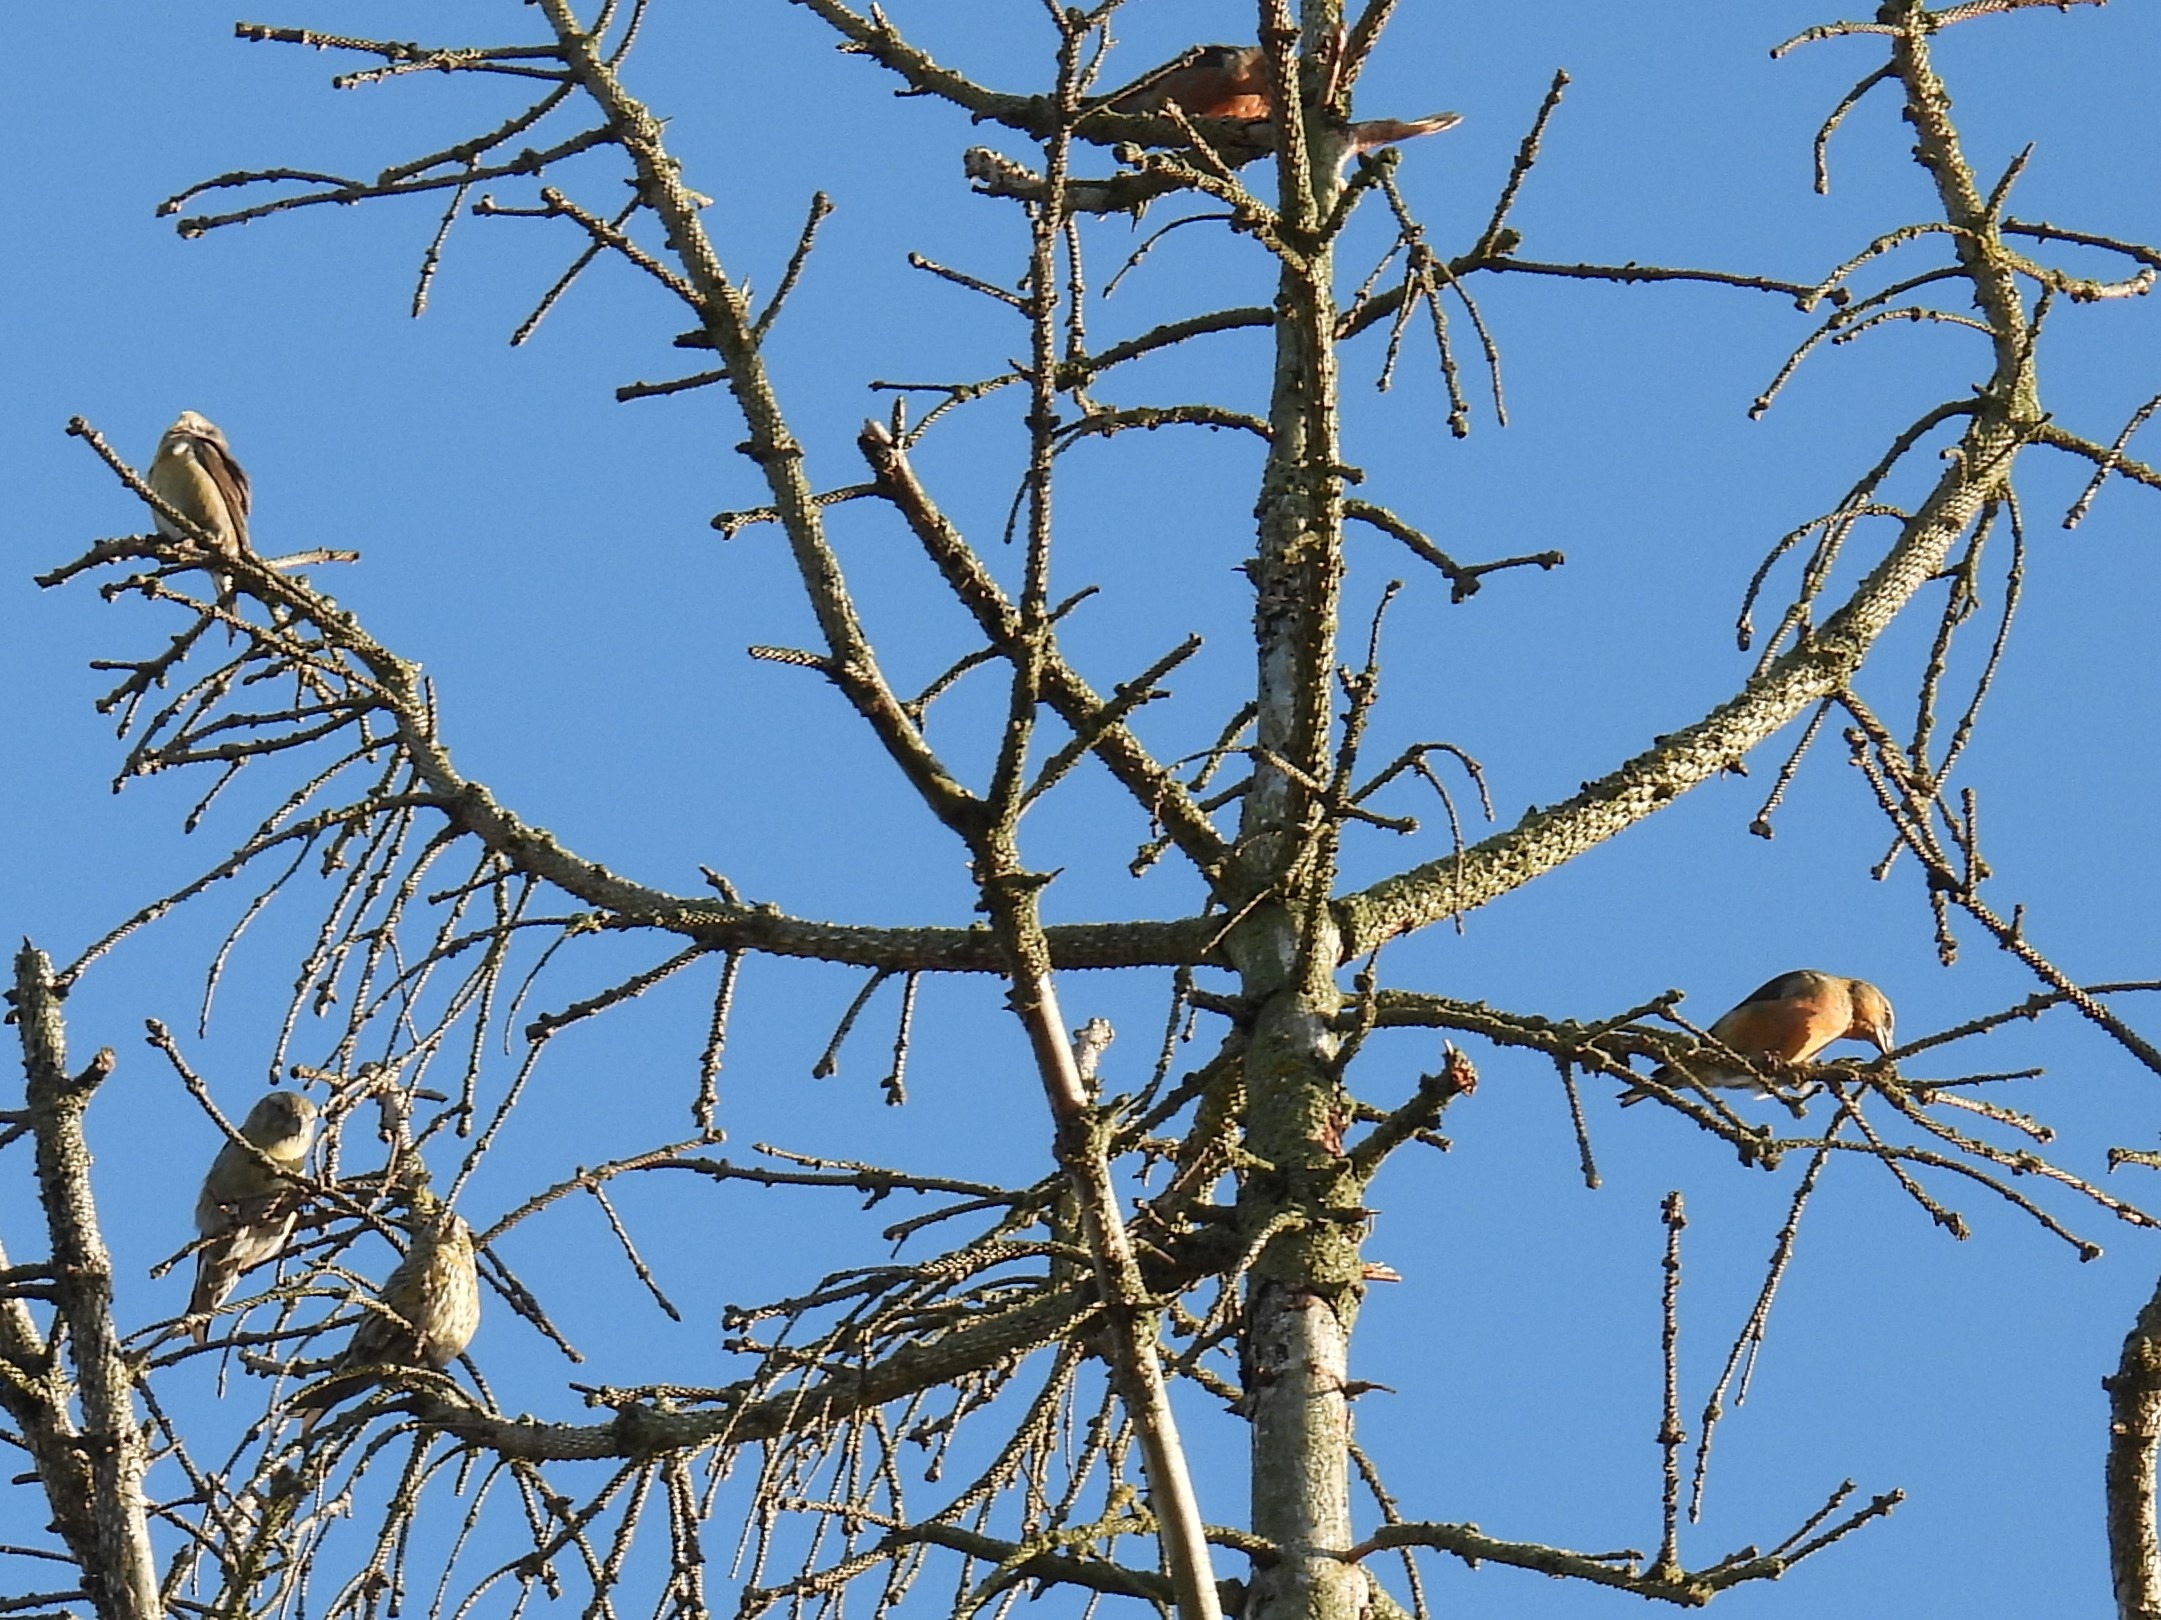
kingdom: Animalia
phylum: Chordata
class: Aves
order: Passeriformes
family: Fringillidae
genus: Loxia
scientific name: Loxia curvirostra
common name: Lille korsnæb
